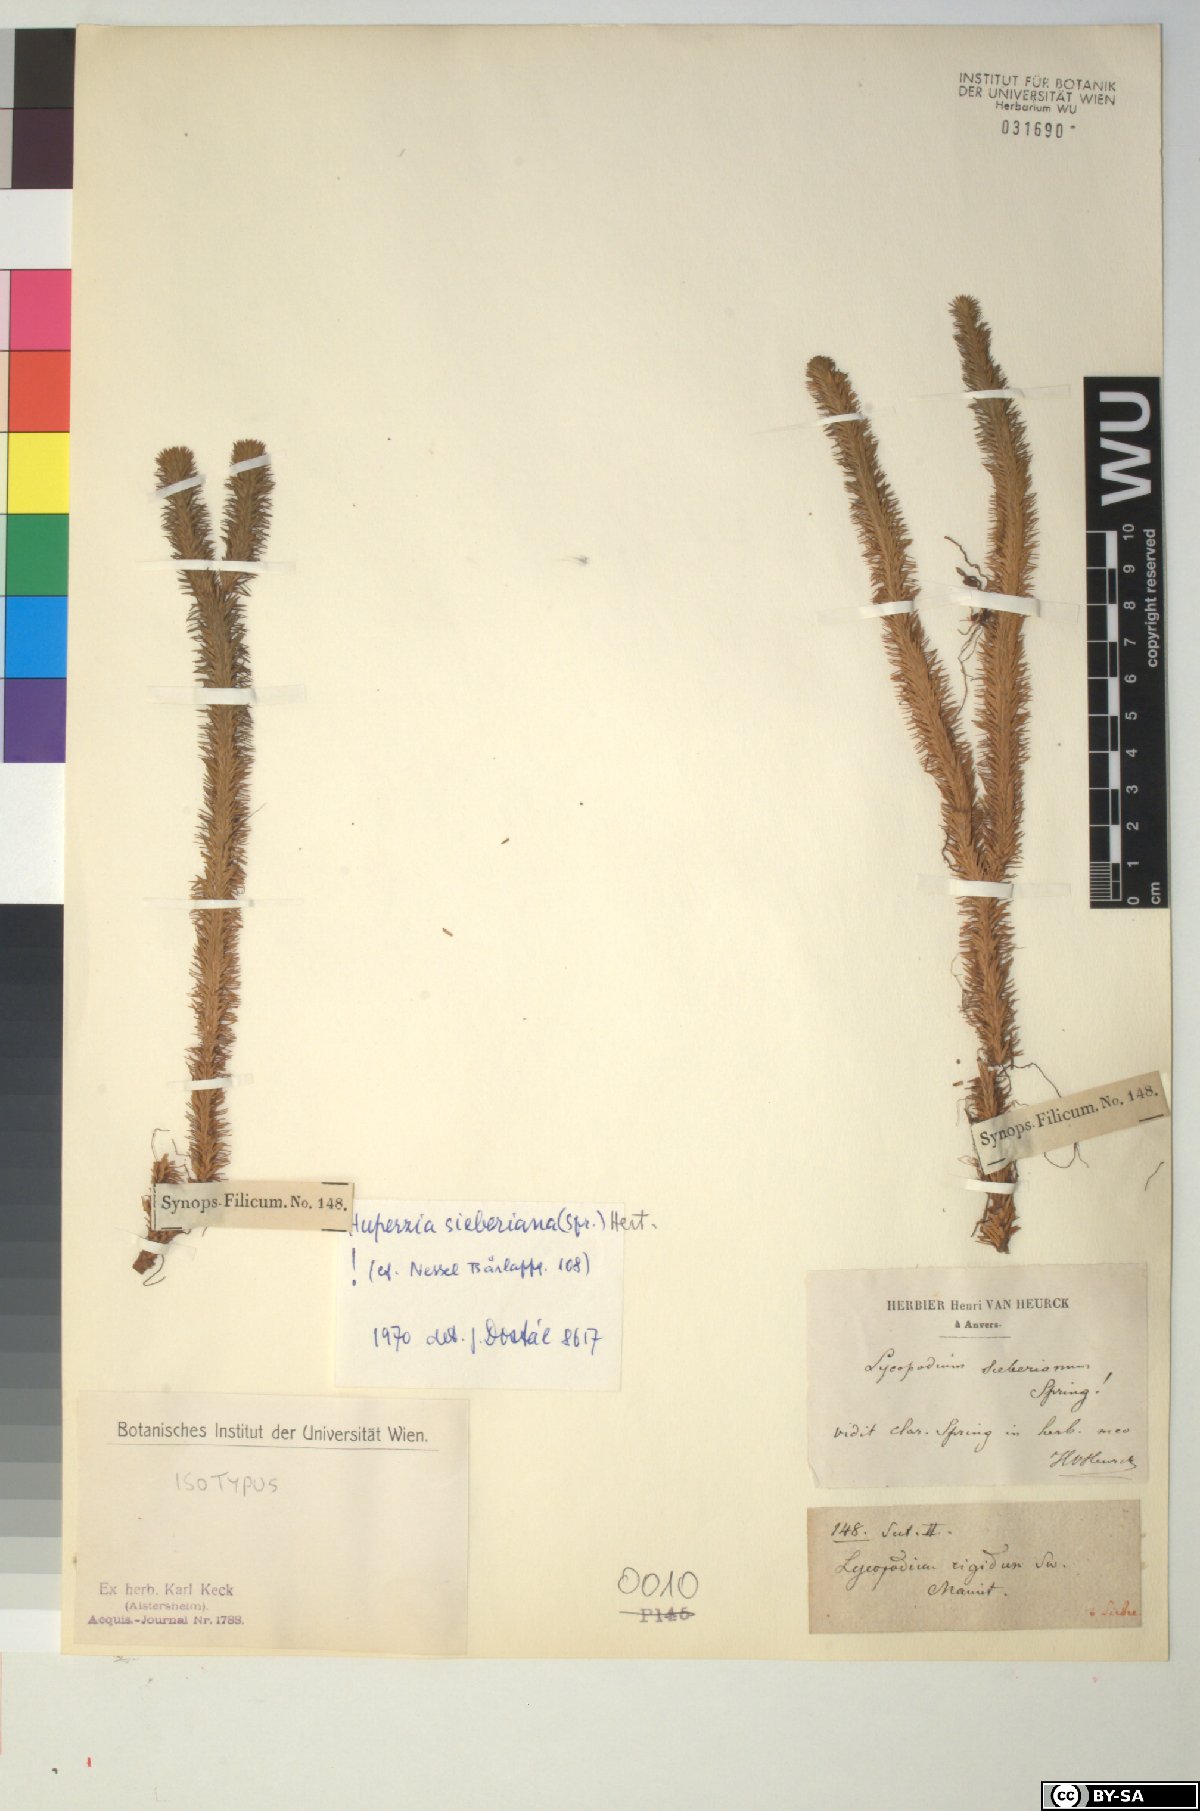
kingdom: Plantae
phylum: Tracheophyta
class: Lycopodiopsida
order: Lycopodiales
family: Lycopodiaceae
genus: Phlegmariurus
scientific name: Phlegmariurus sieberianus
